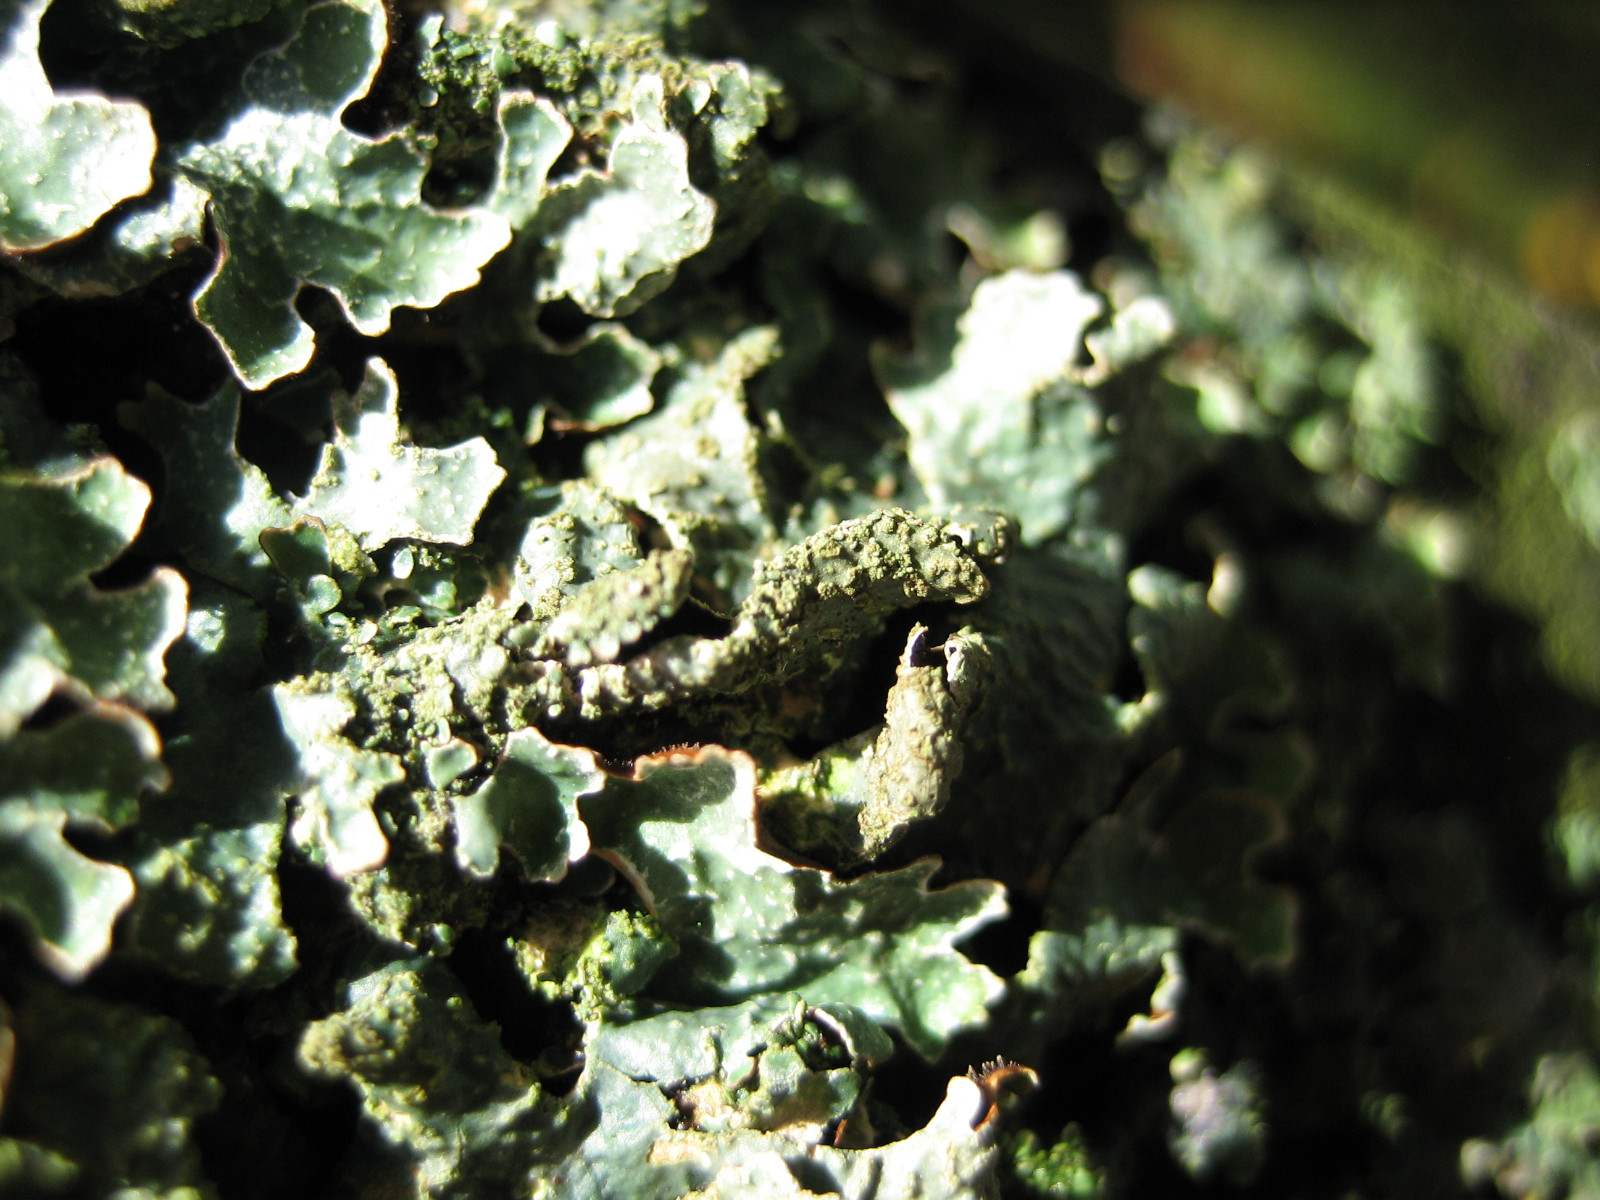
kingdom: Fungi
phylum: Ascomycota
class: Lecanoromycetes
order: Lecanorales
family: Parmeliaceae
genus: Parmelia
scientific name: Parmelia sulcata
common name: rynket skållav
